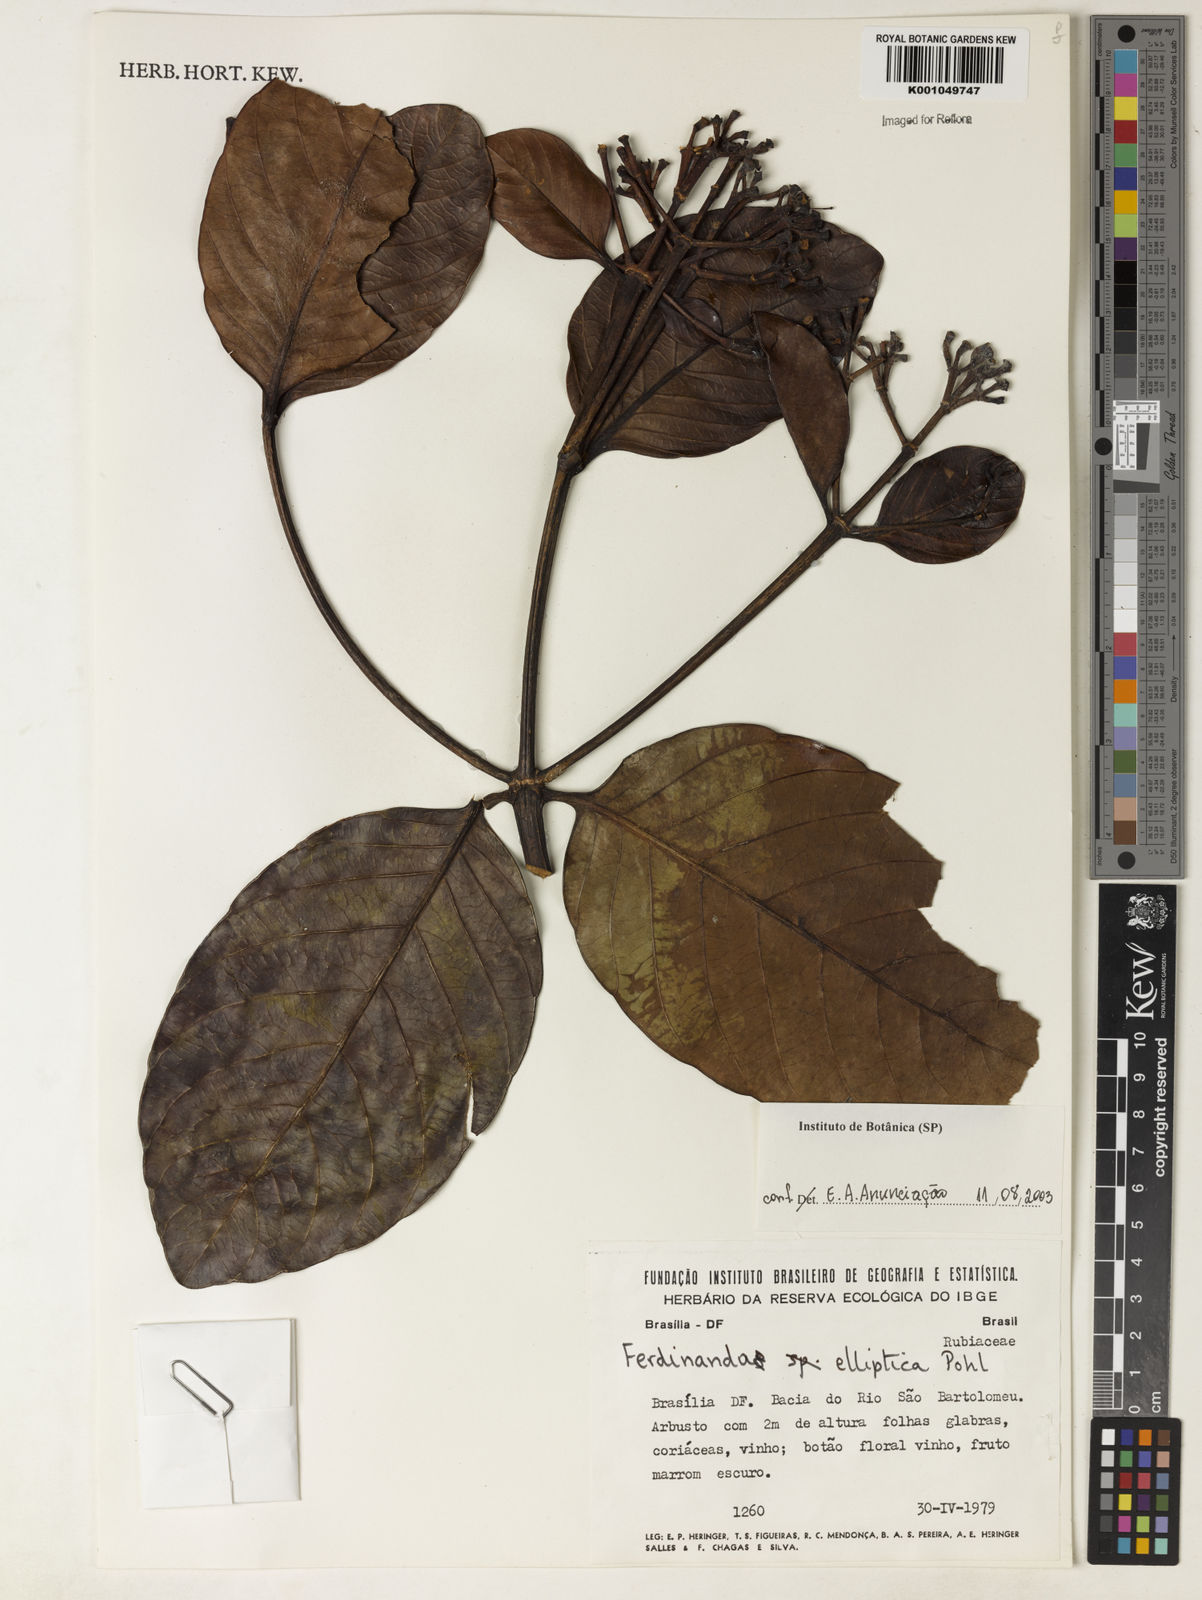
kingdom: Plantae
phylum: Tracheophyta
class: Magnoliopsida
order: Gentianales
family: Rubiaceae
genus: Ferdinandusa
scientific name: Ferdinandusa elliptica
